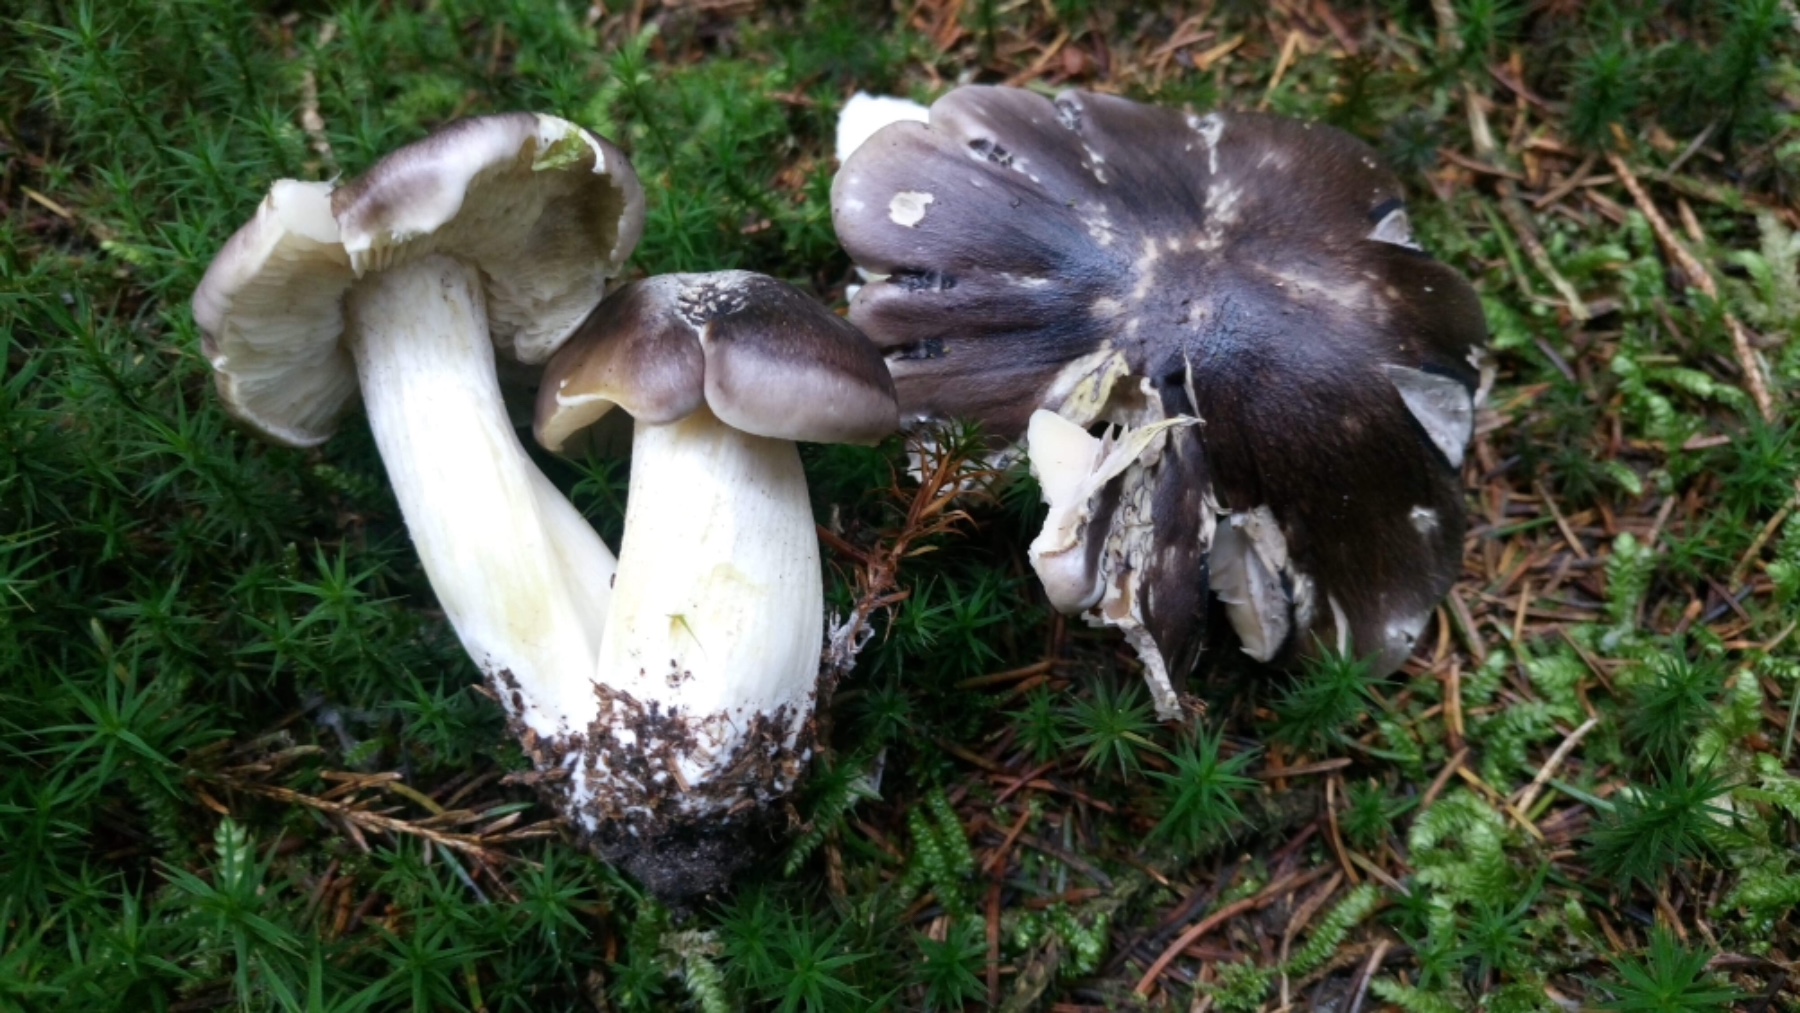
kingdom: Fungi
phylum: Basidiomycota
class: Agaricomycetes
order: Agaricales
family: Tricholomataceae
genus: Tricholoma
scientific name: Tricholoma portentosum
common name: grå ridderhat
